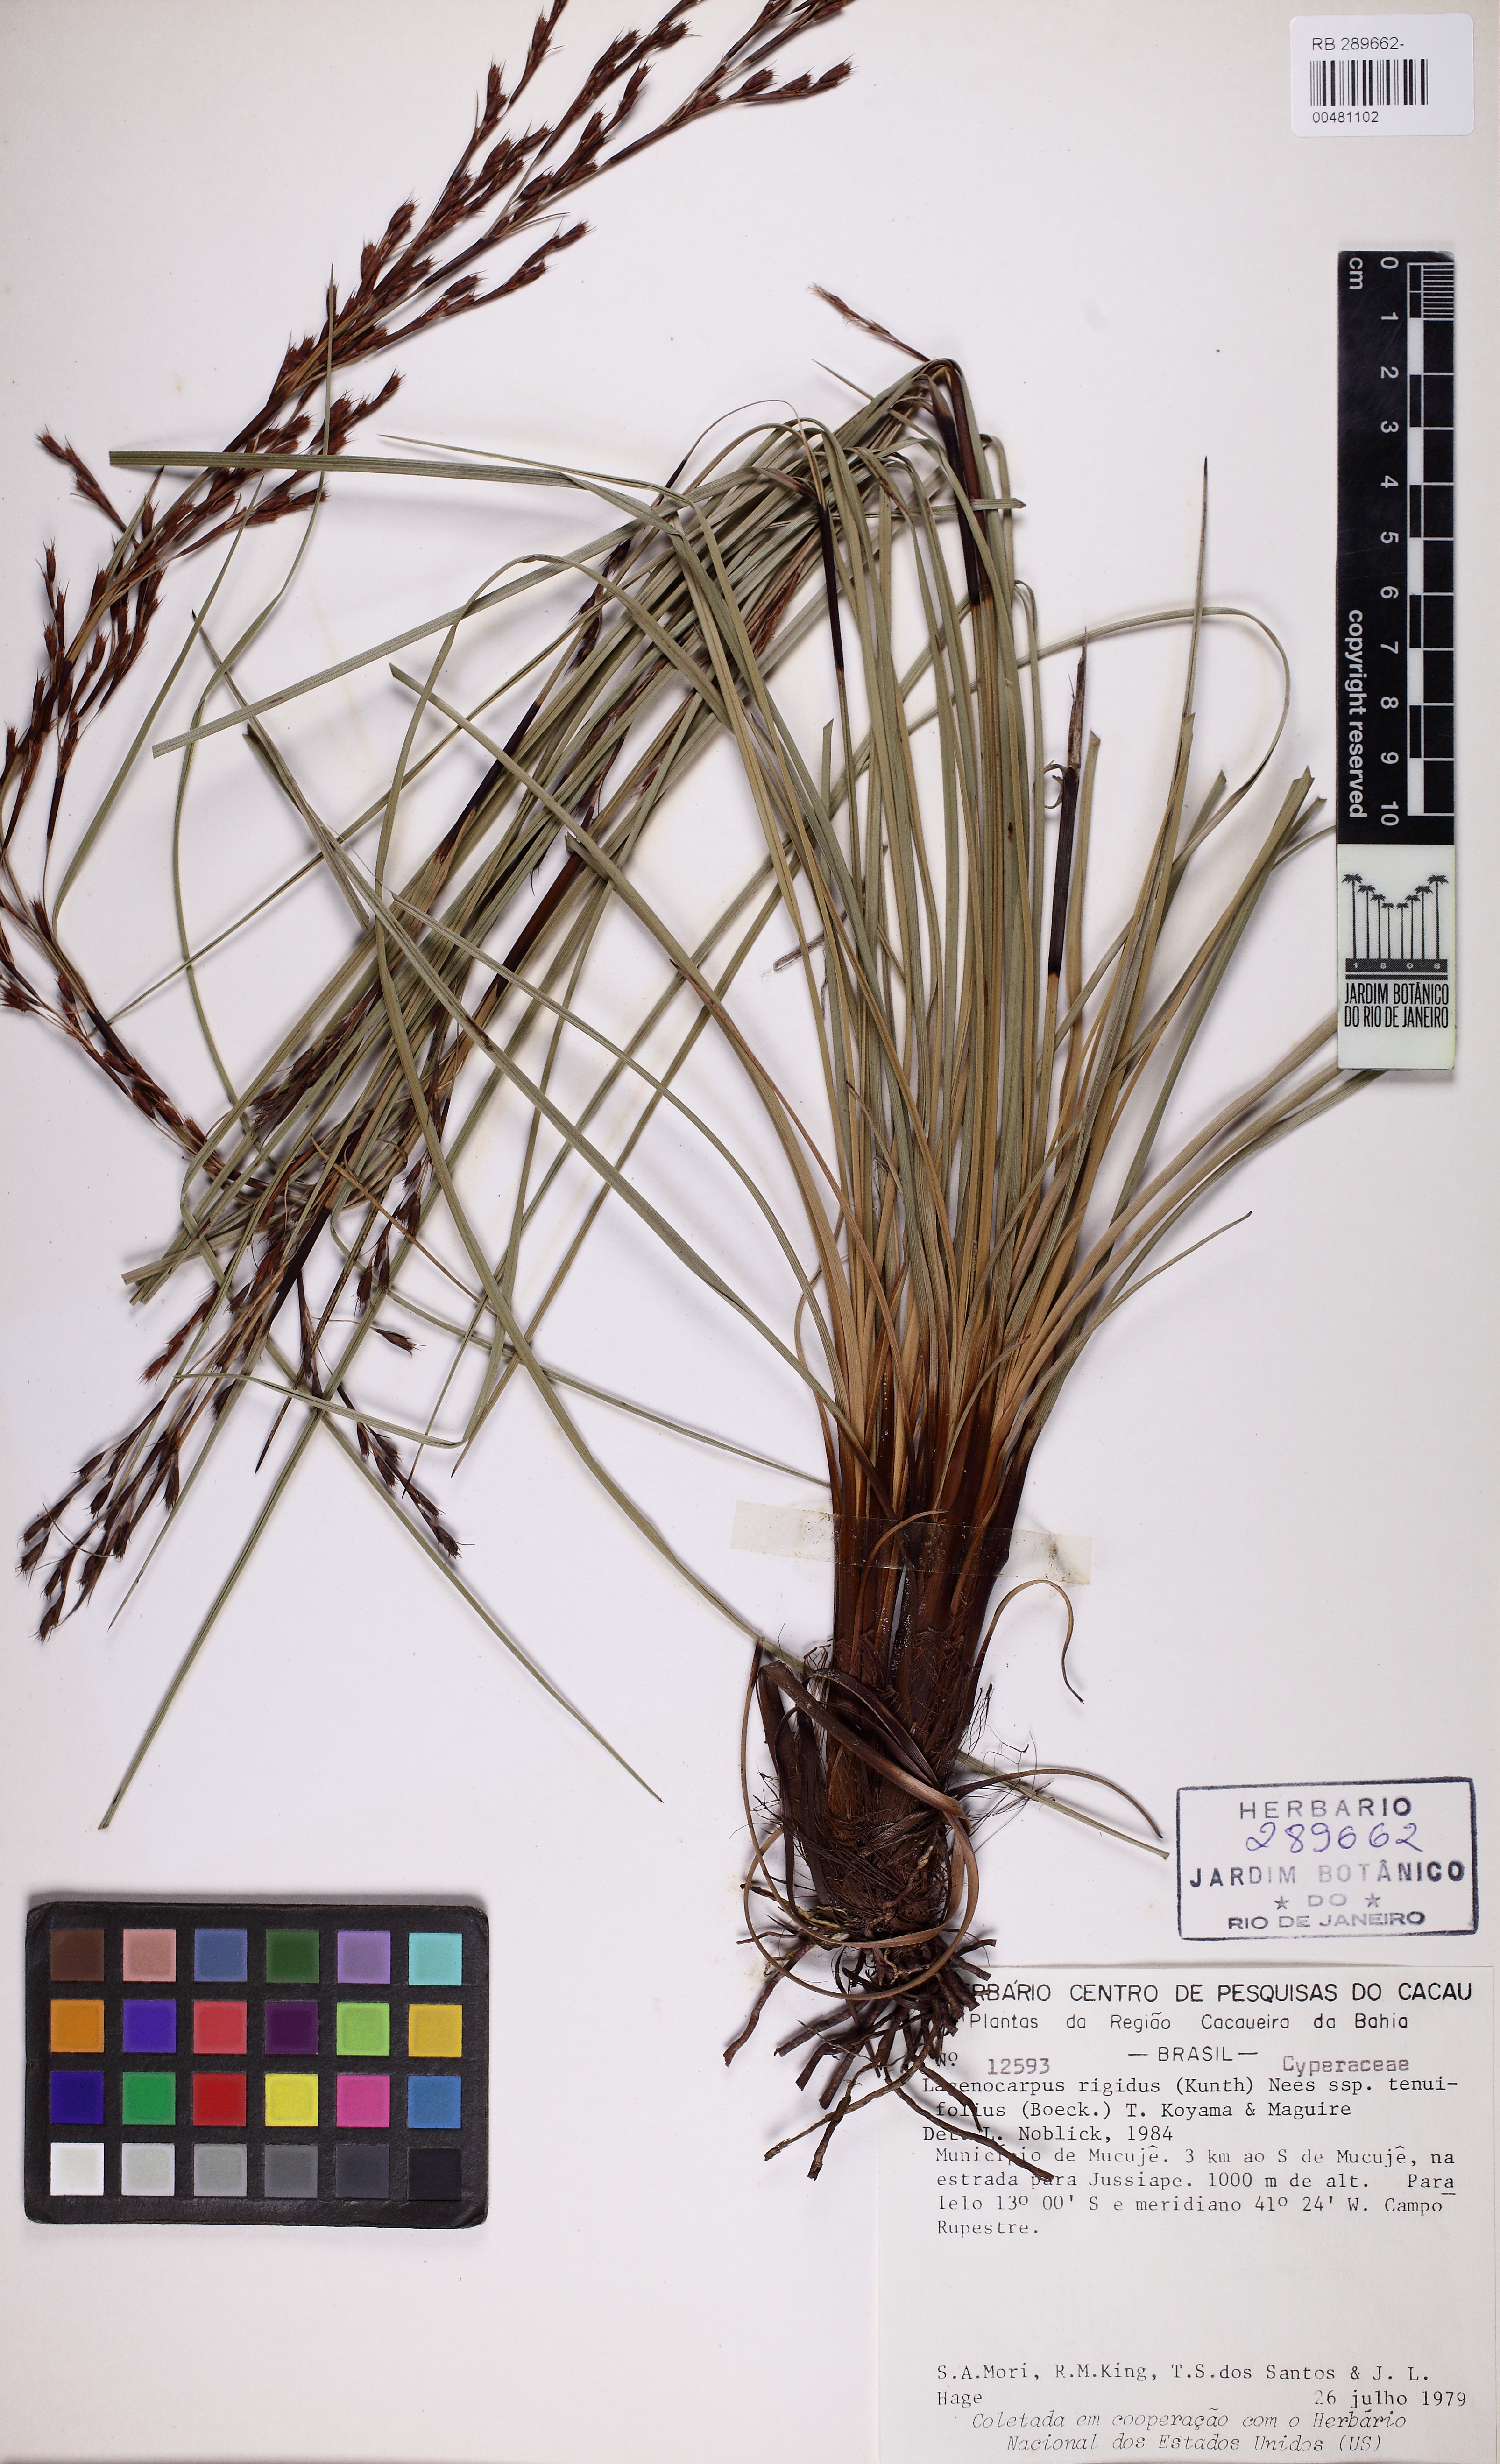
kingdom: Plantae
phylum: Tracheophyta
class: Liliopsida
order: Poales
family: Cyperaceae
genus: Lagenocarpus
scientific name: Lagenocarpus rigidus
